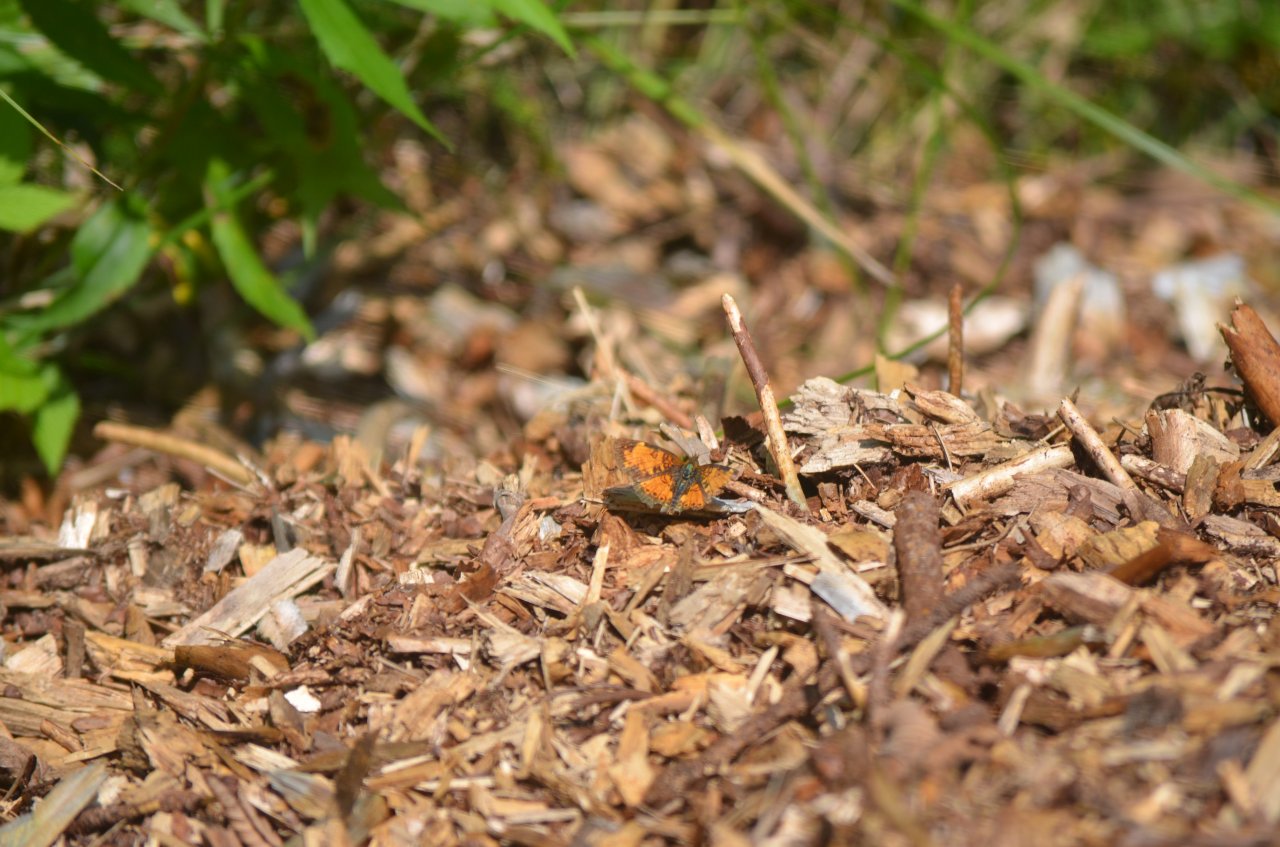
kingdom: Animalia
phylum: Arthropoda
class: Insecta
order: Lepidoptera
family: Nymphalidae
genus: Phyciodes
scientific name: Phyciodes tharos
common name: Northern Crescent
